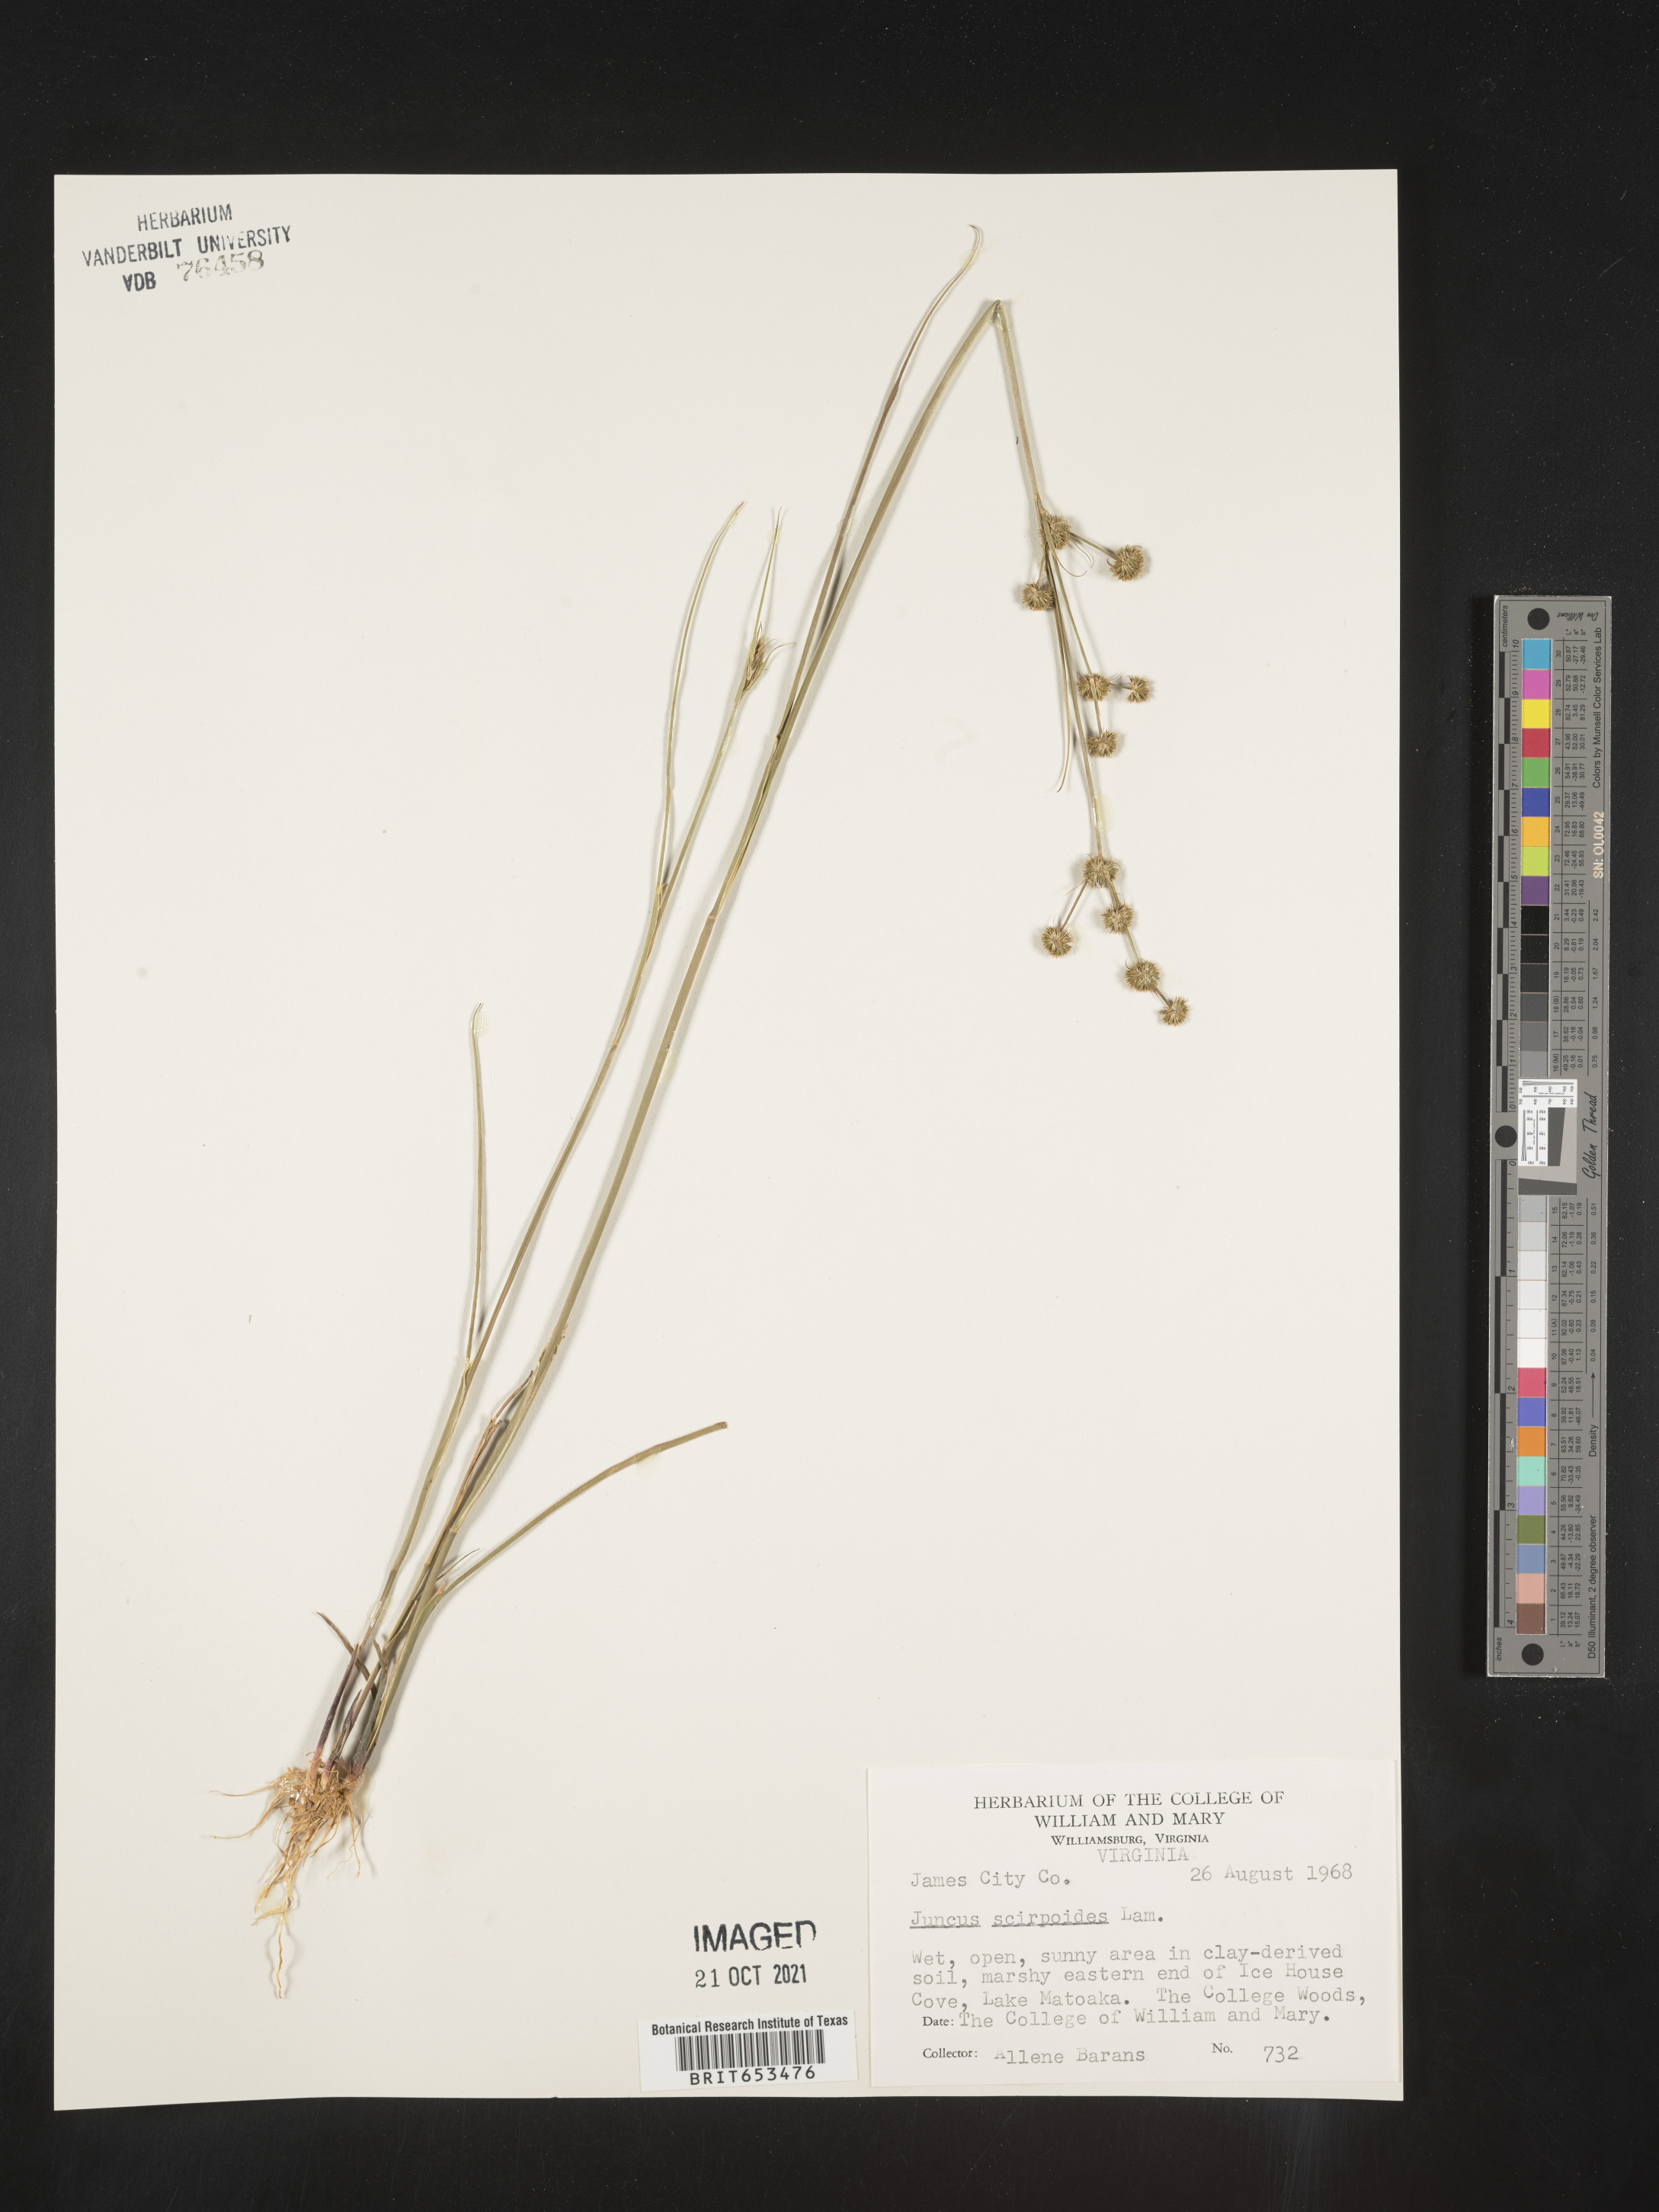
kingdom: Plantae
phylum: Tracheophyta
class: Liliopsida
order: Poales
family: Juncaceae
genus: Juncus
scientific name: Juncus scirpoides
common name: Needlepod rush
